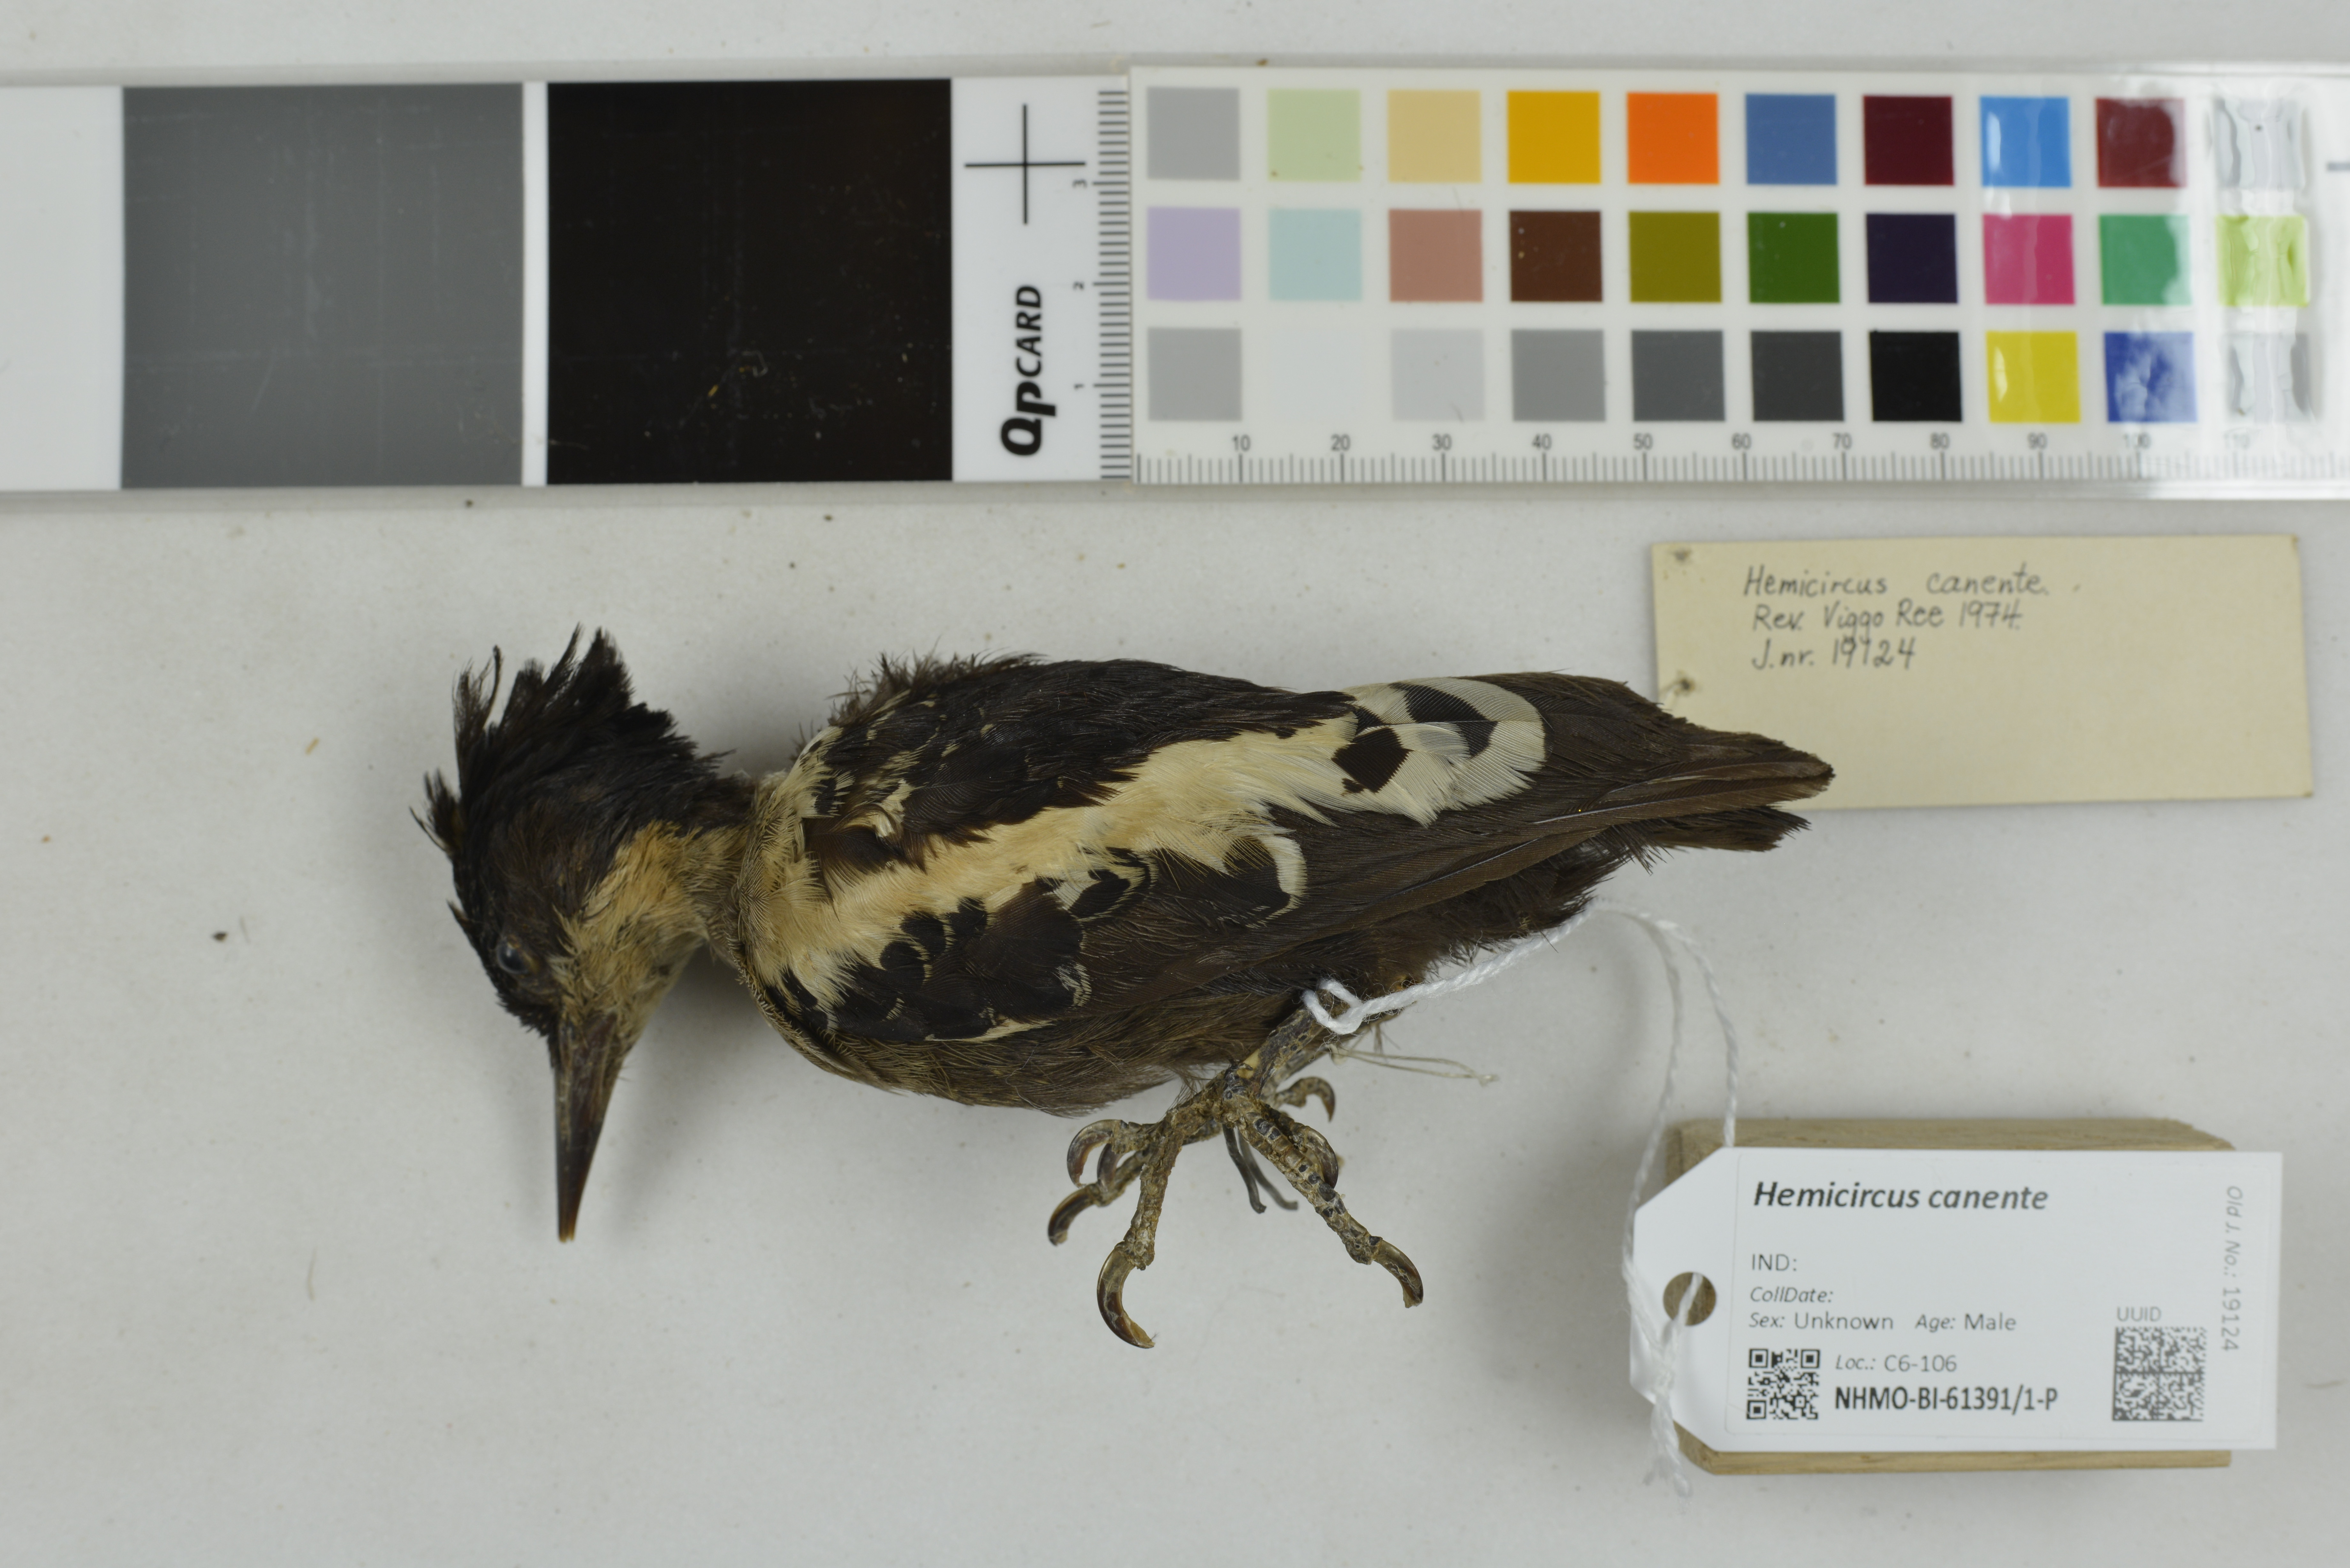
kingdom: Animalia
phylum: Chordata
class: Aves
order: Piciformes
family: Picidae
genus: Hemicircus
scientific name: Hemicircus canente
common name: Heart-spotted woodpecker
